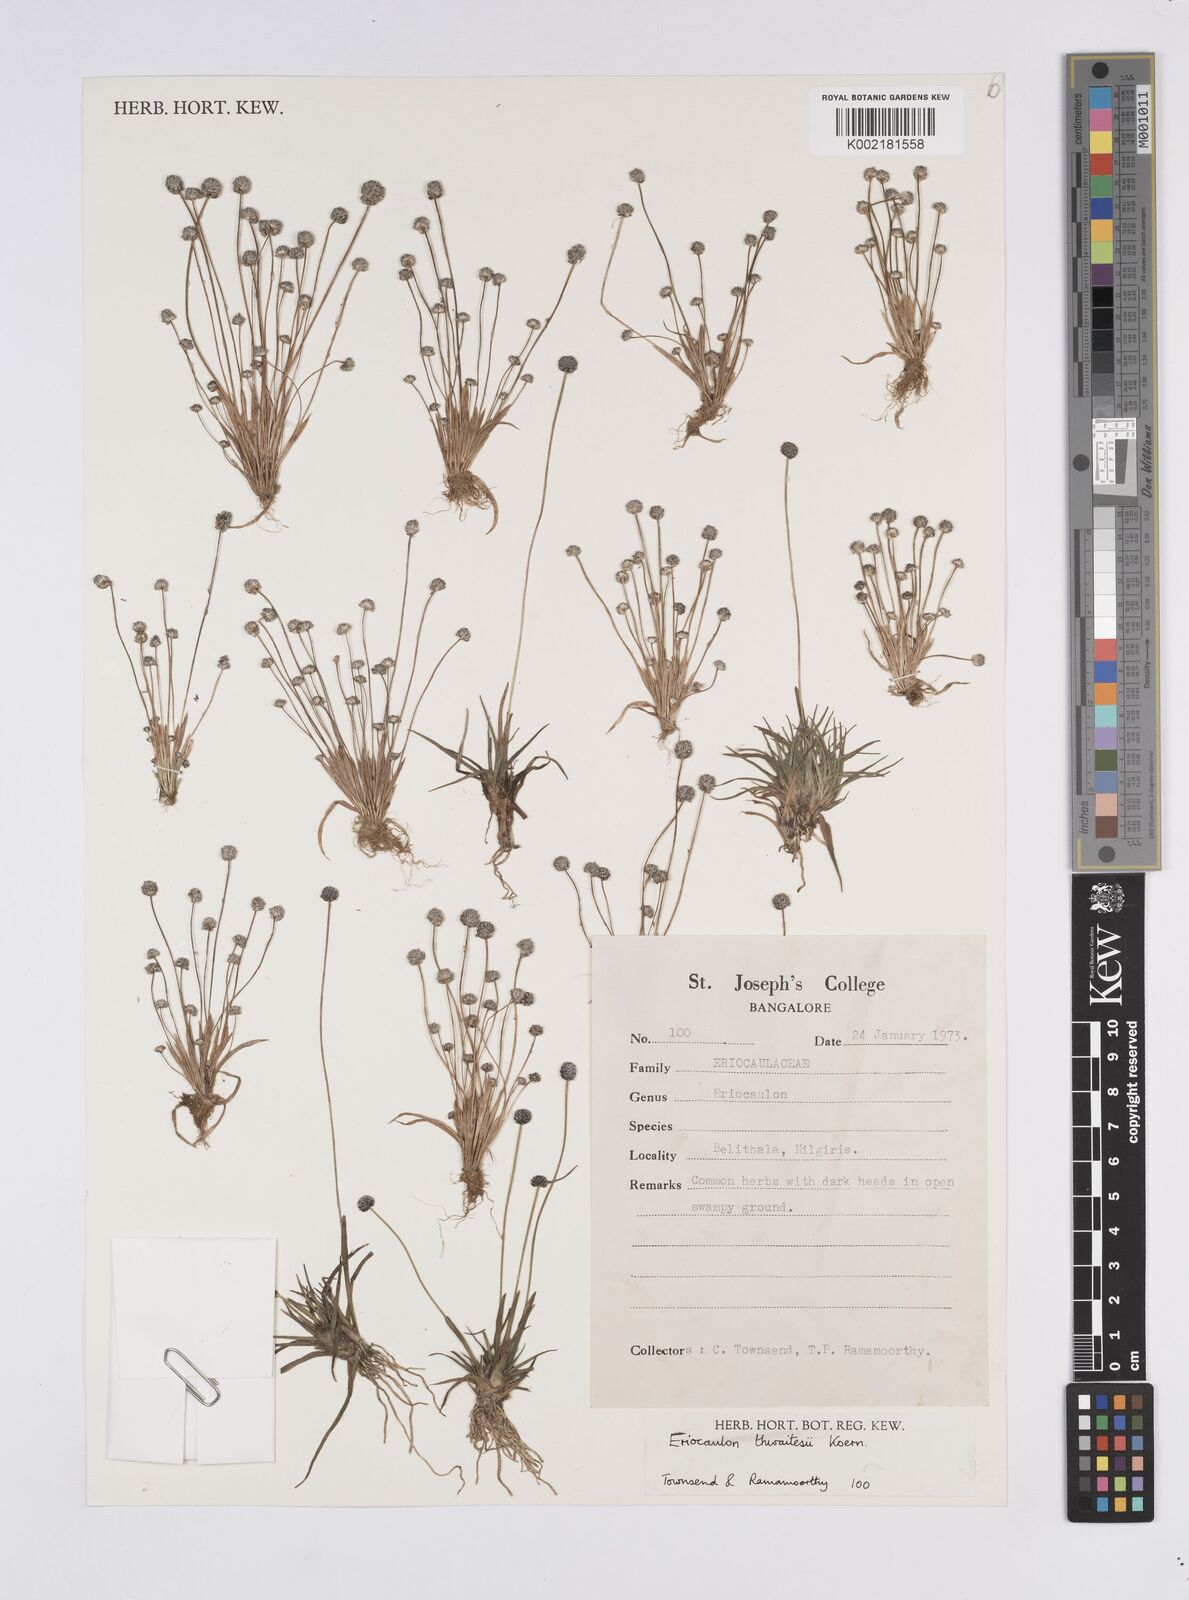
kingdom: Plantae
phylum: Tracheophyta
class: Liliopsida
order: Poales
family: Eriocaulaceae
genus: Eriocaulon
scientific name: Eriocaulon thwaitesii
